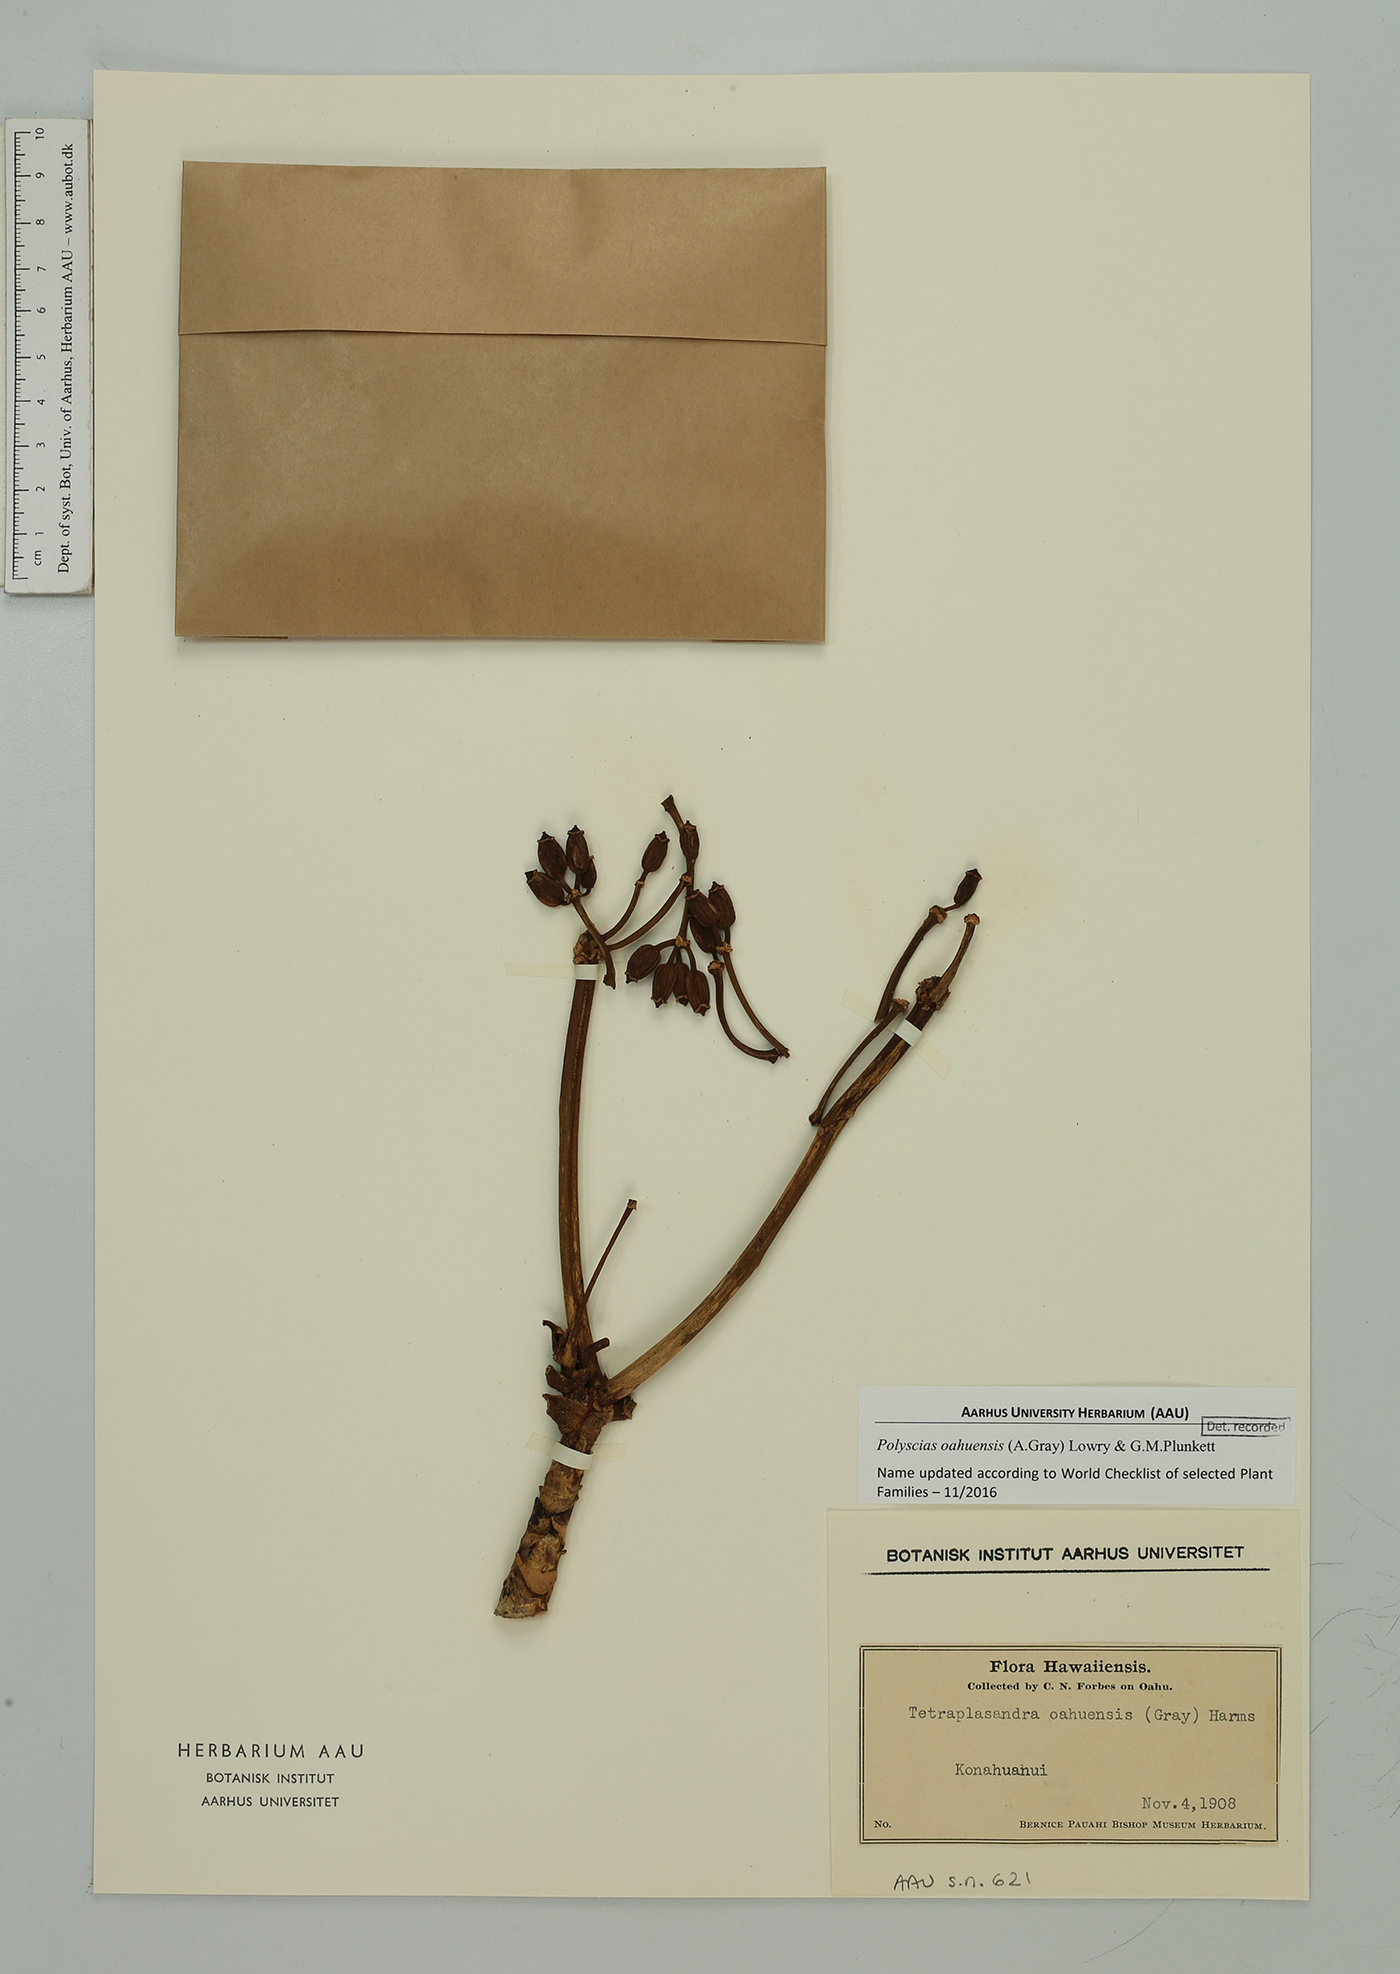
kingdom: Plantae
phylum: Tracheophyta
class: Magnoliopsida
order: Apiales
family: Araliaceae
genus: Polyscias
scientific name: Polyscias oahuensis
